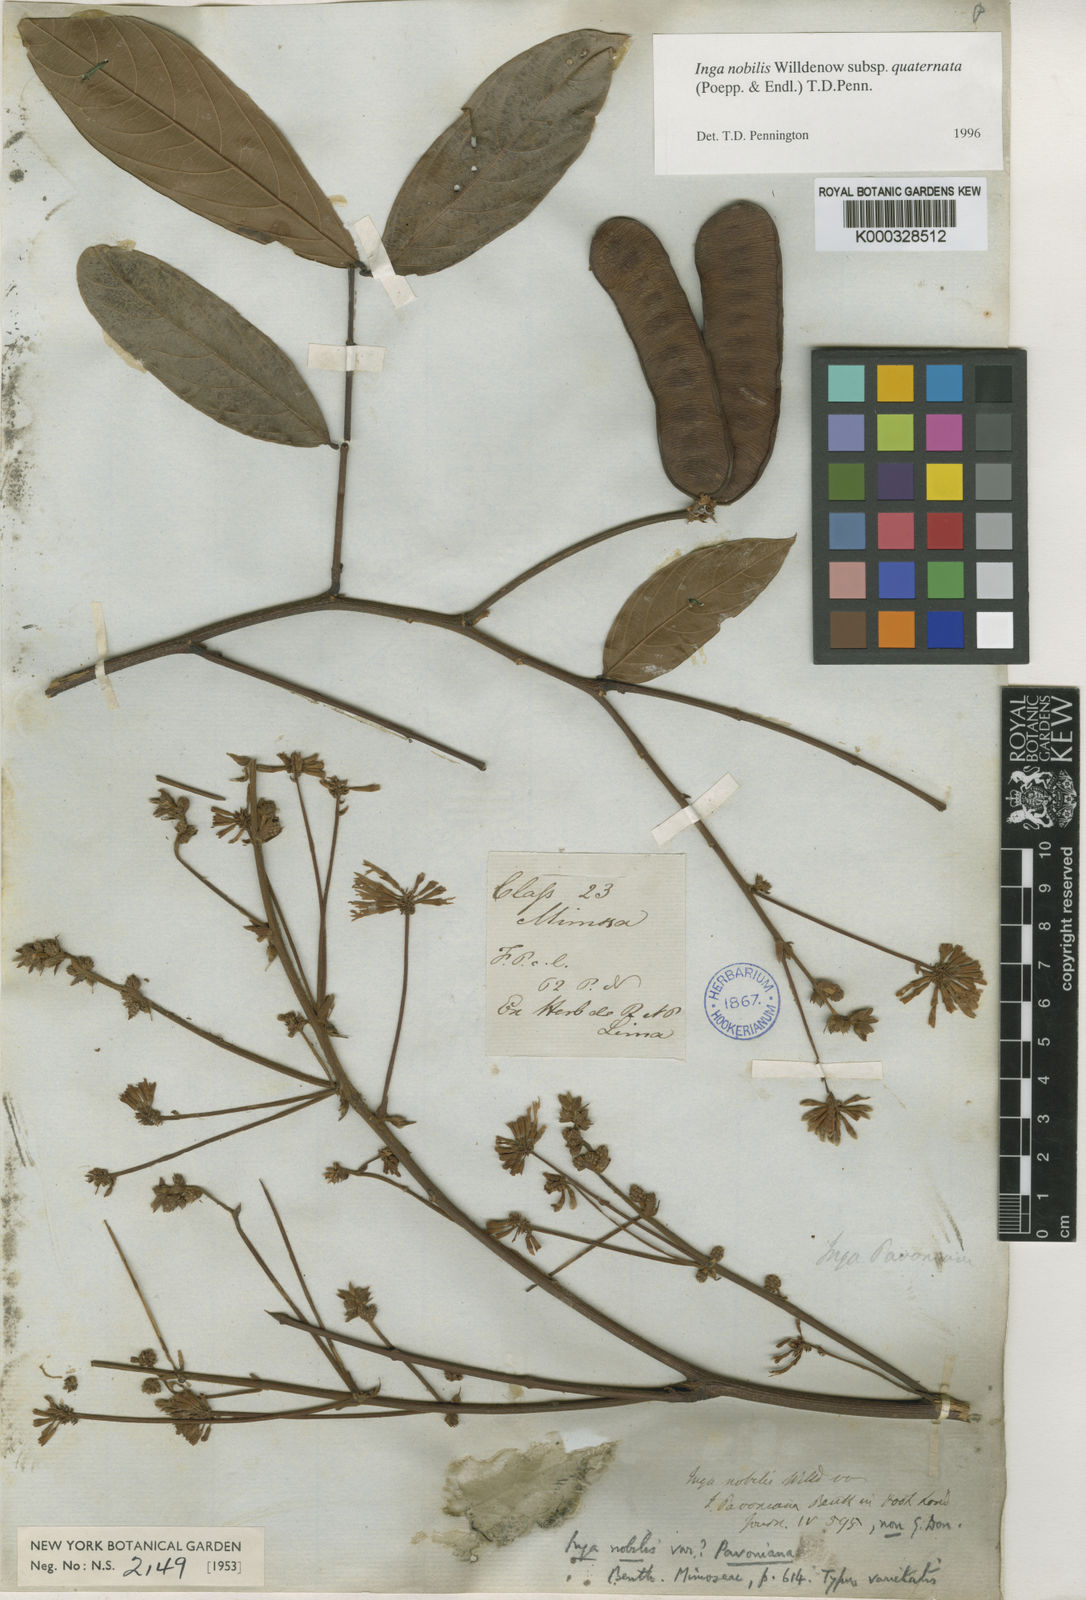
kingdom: Plantae
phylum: Tracheophyta
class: Magnoliopsida
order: Fabales
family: Fabaceae
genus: Inga
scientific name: Inga nobilis
